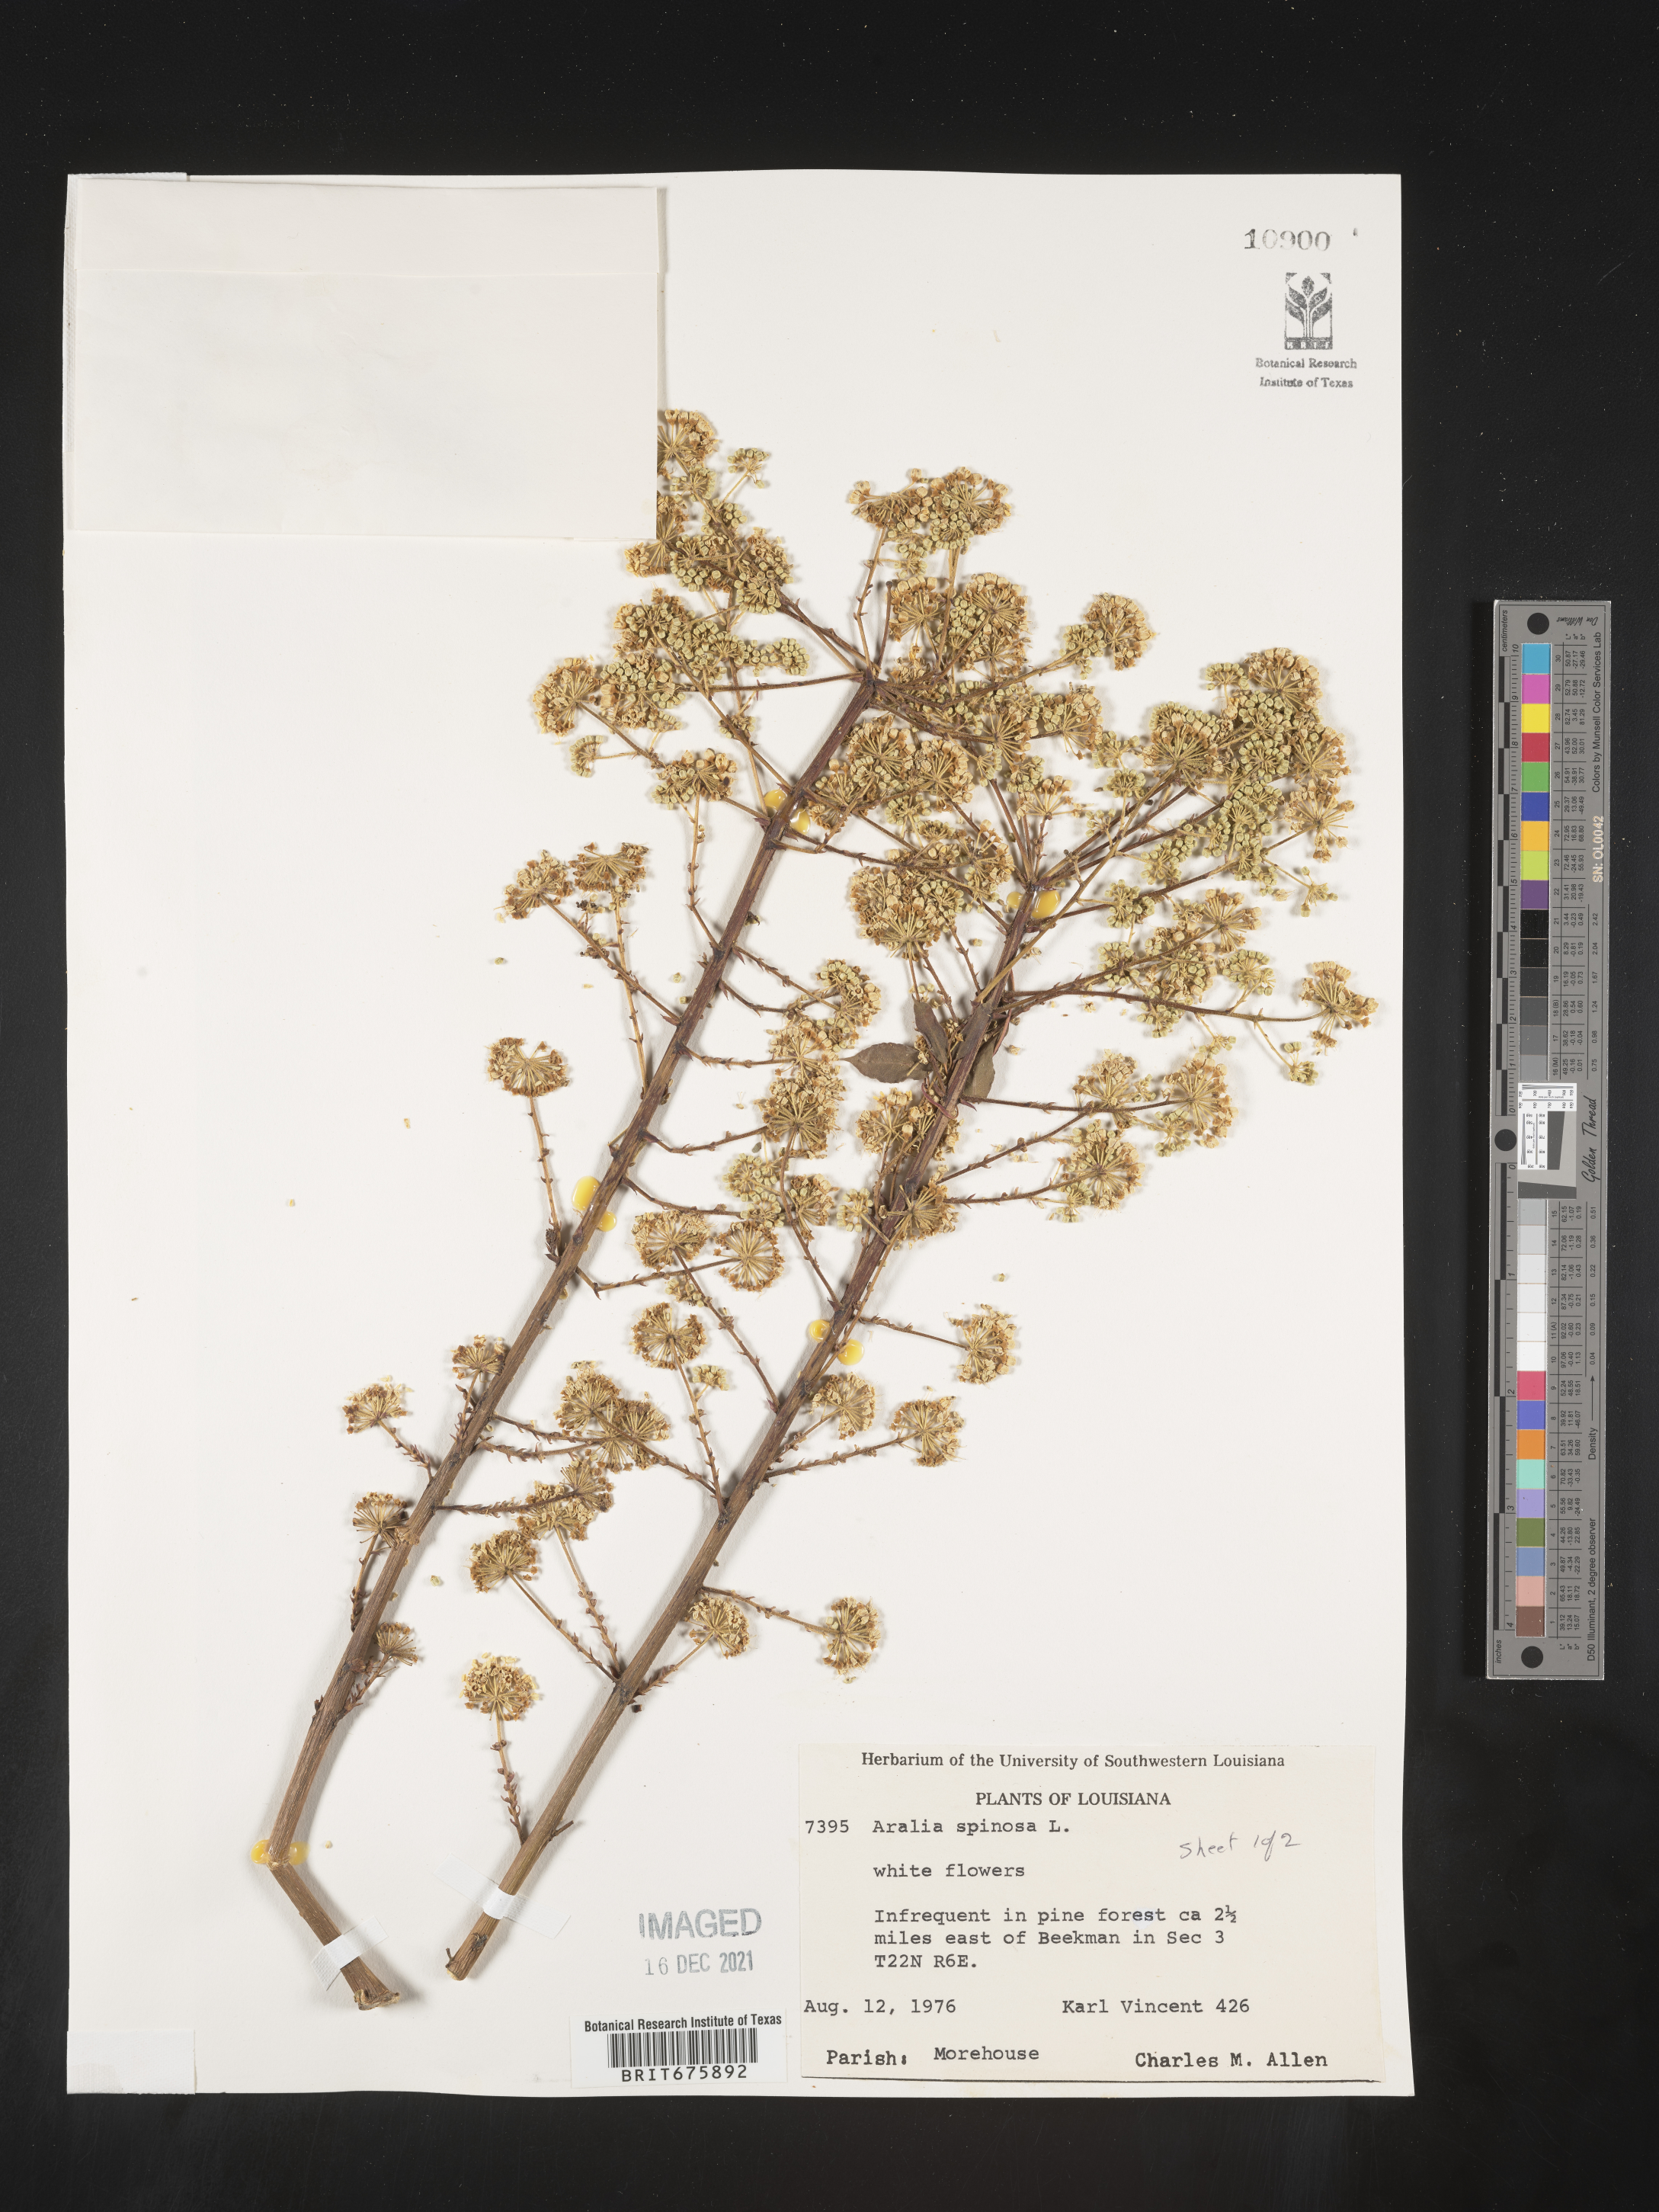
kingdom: Plantae
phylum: Tracheophyta
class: Magnoliopsida
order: Apiales
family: Araliaceae
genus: Aralia
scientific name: Aralia spinosa
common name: Hercules'-club
